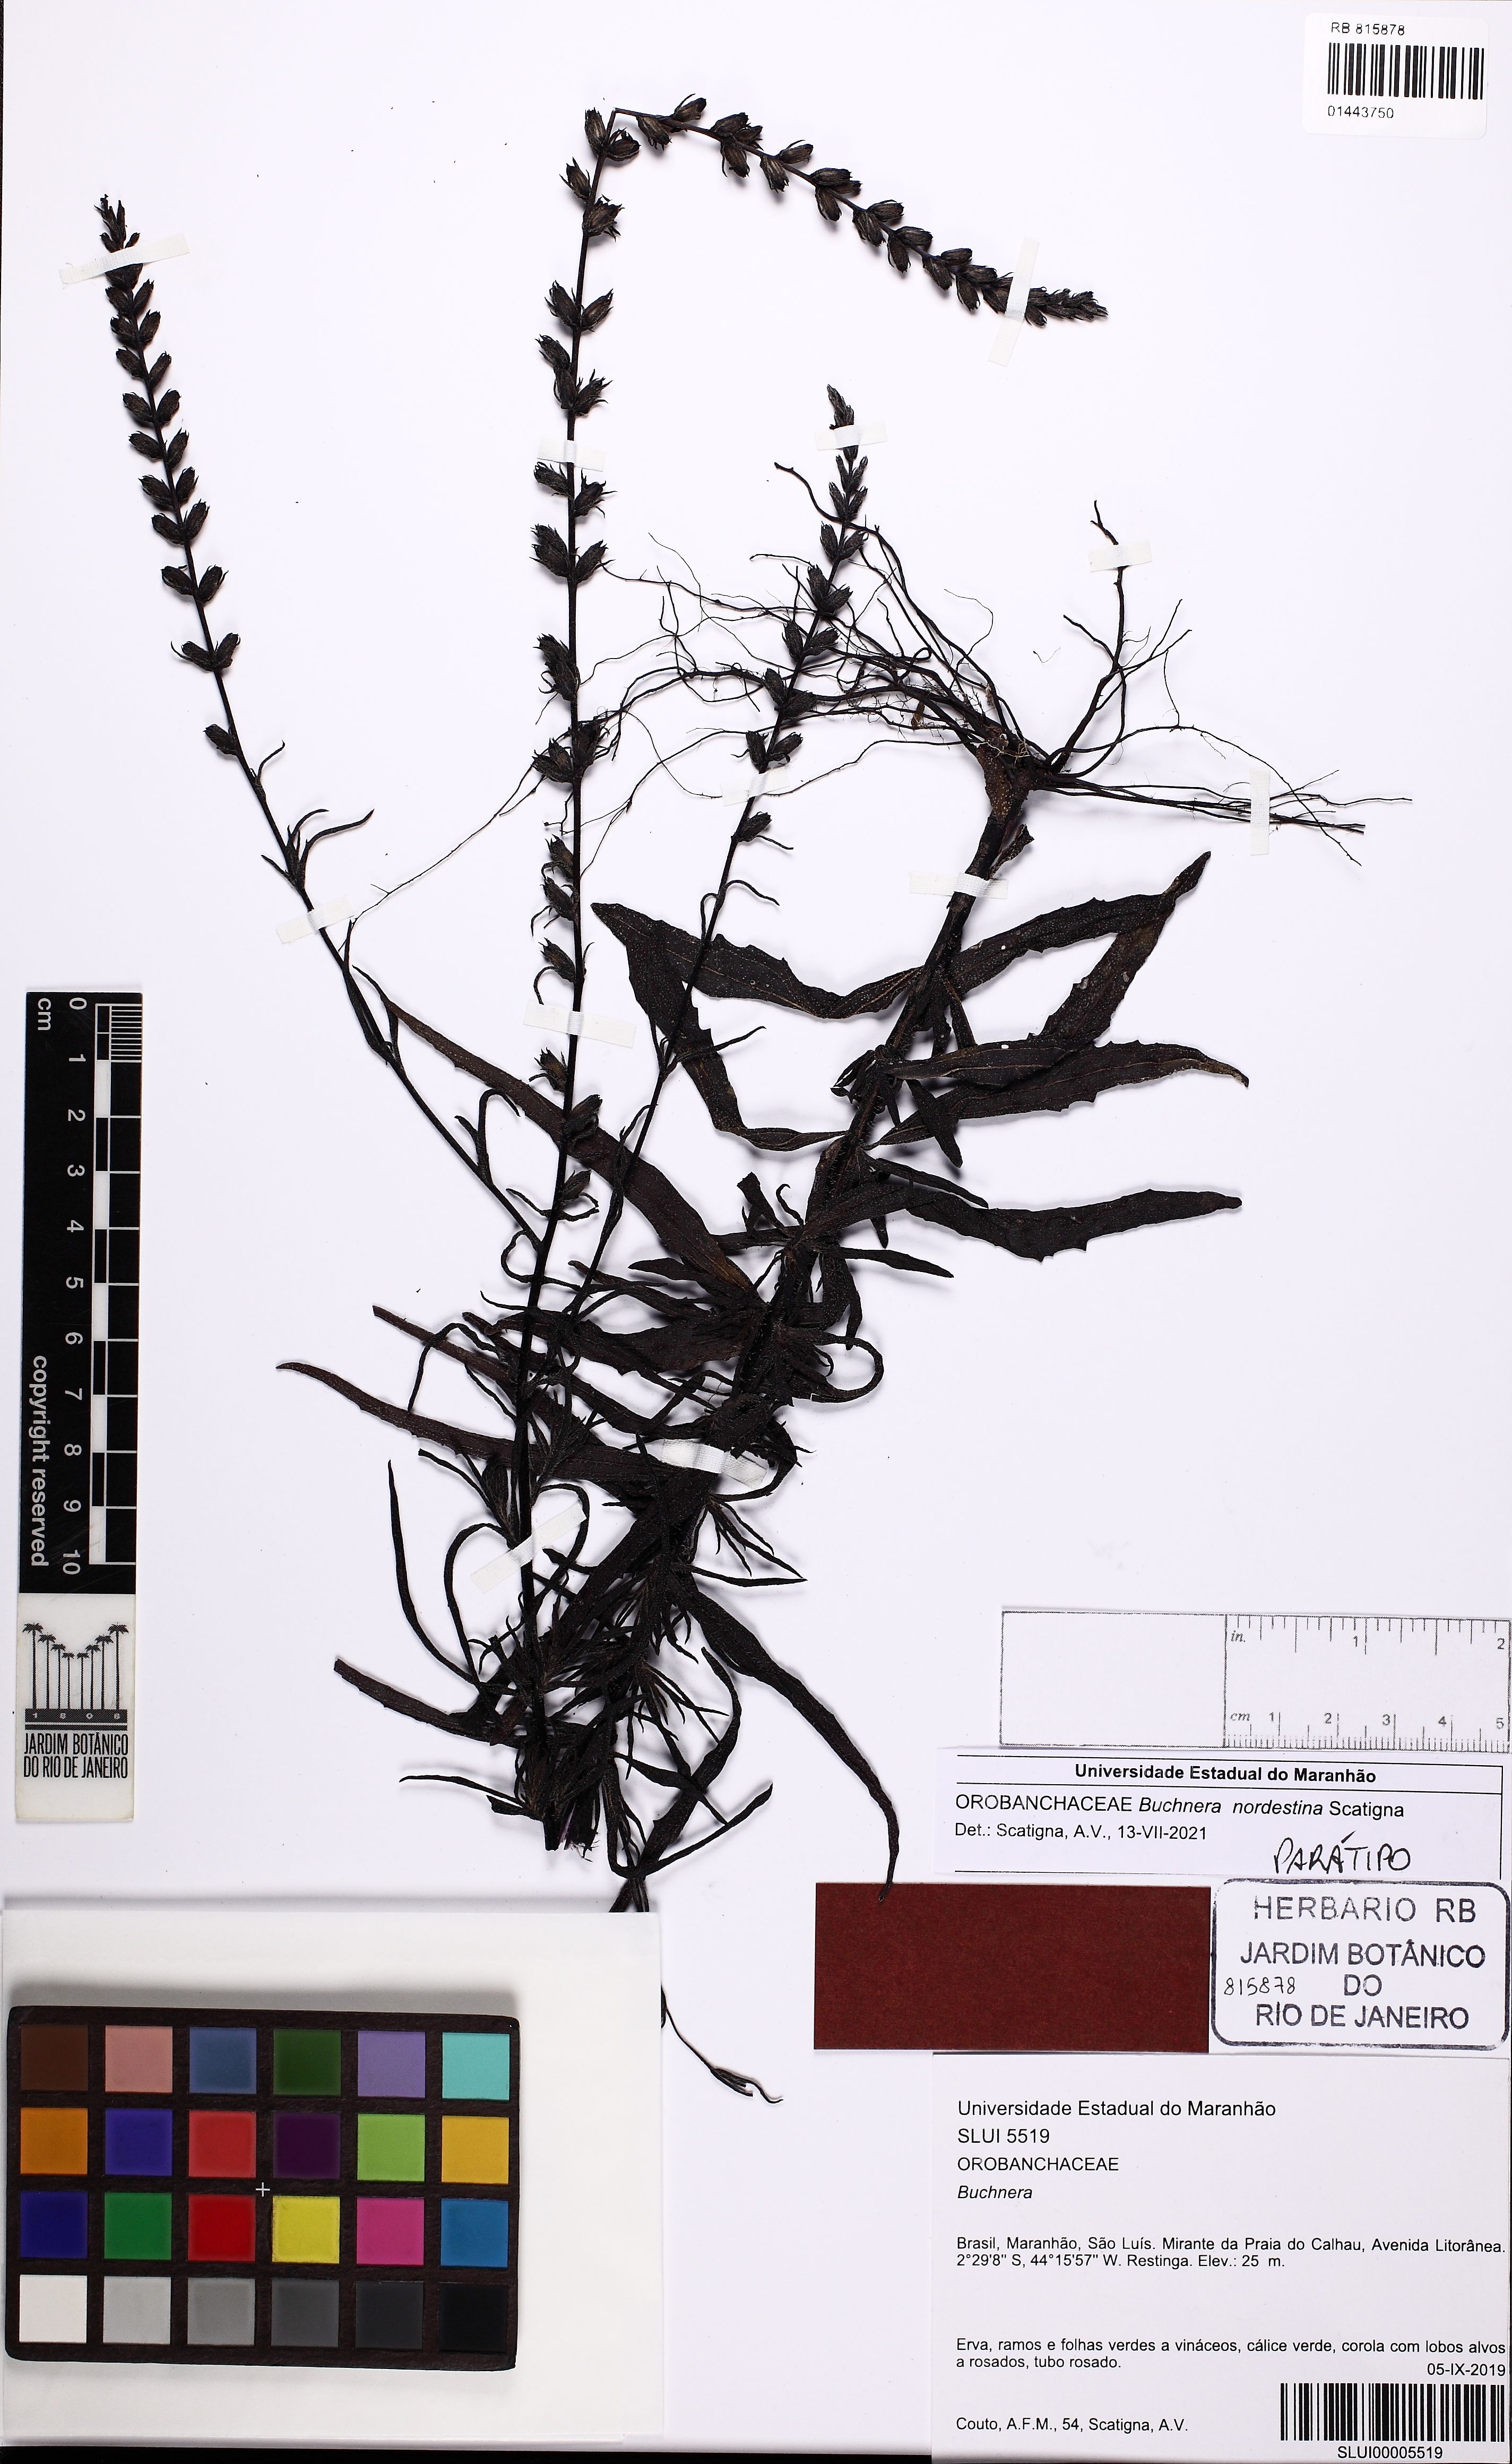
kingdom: Plantae
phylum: Tracheophyta
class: Magnoliopsida
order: Lamiales
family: Orobanchaceae
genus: Buchnera
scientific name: Buchnera nordestina
